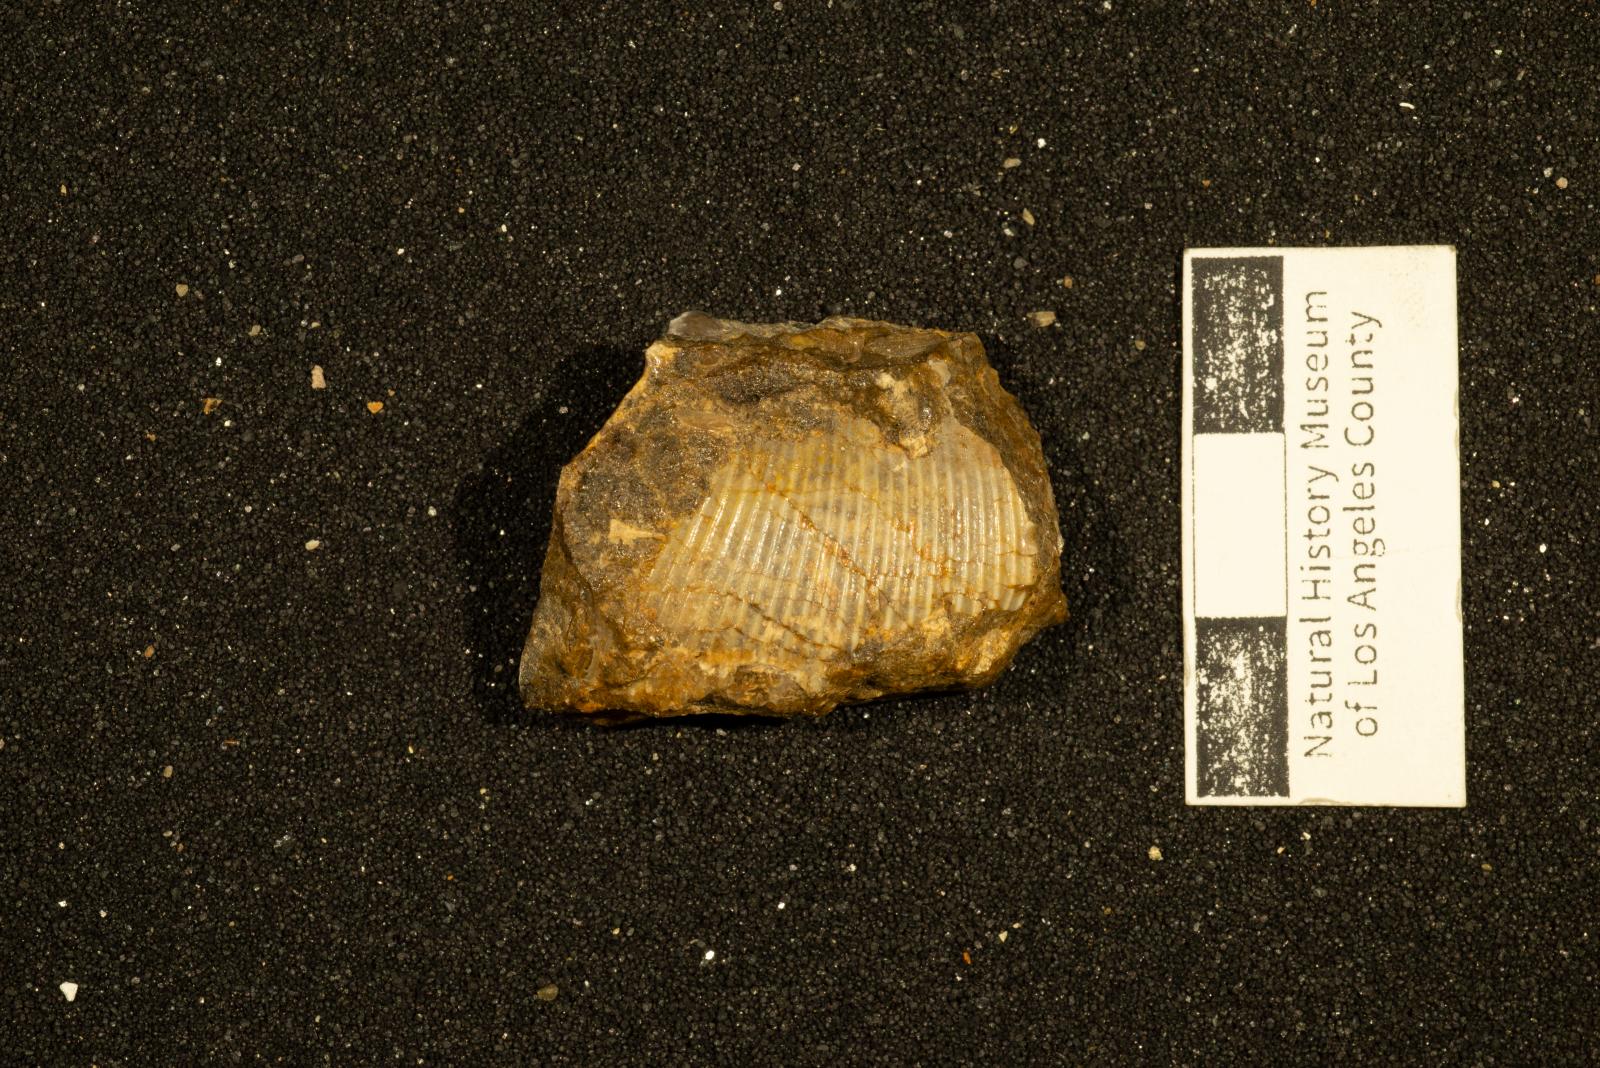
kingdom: Animalia
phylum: Mollusca
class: Cephalopoda
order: Phylloceratida
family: Phylloceratidae
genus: Neophylloceras
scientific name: Neophylloceras ramosum
